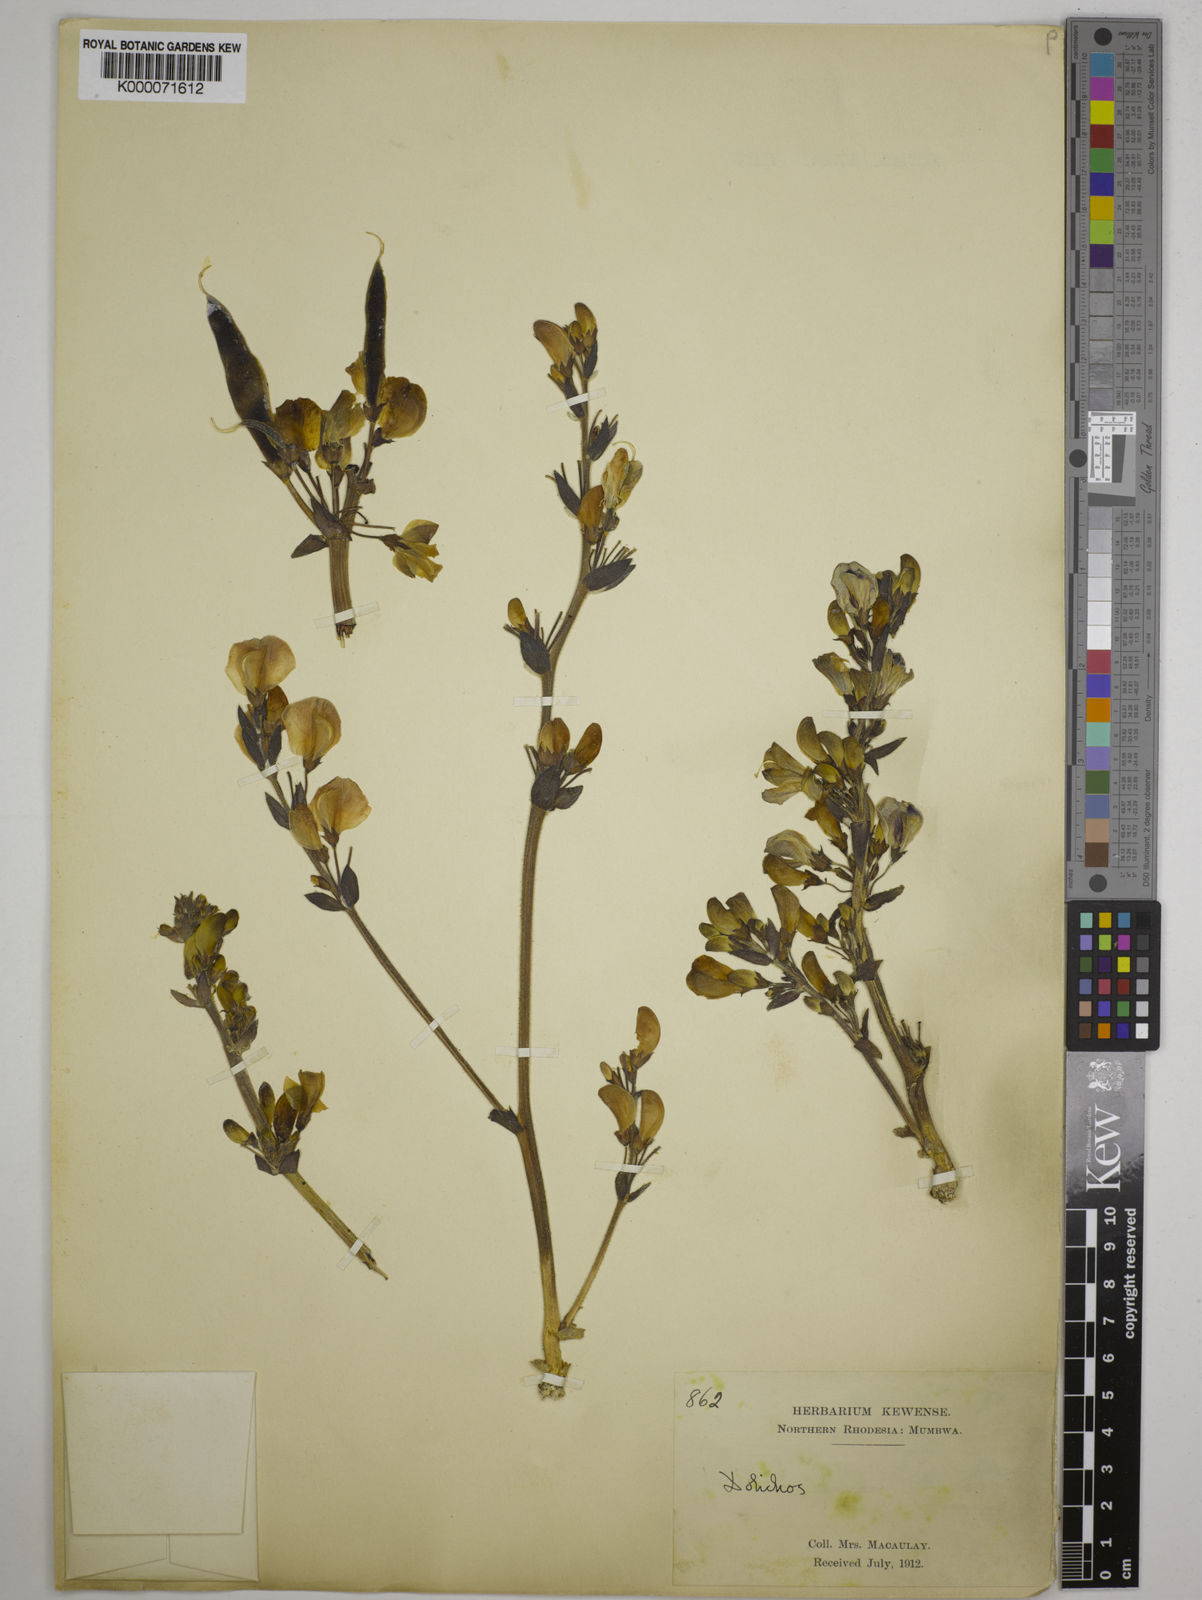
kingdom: Plantae
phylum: Tracheophyta
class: Magnoliopsida
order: Fabales
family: Fabaceae
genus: Dolichos
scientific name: Dolichos gululu
